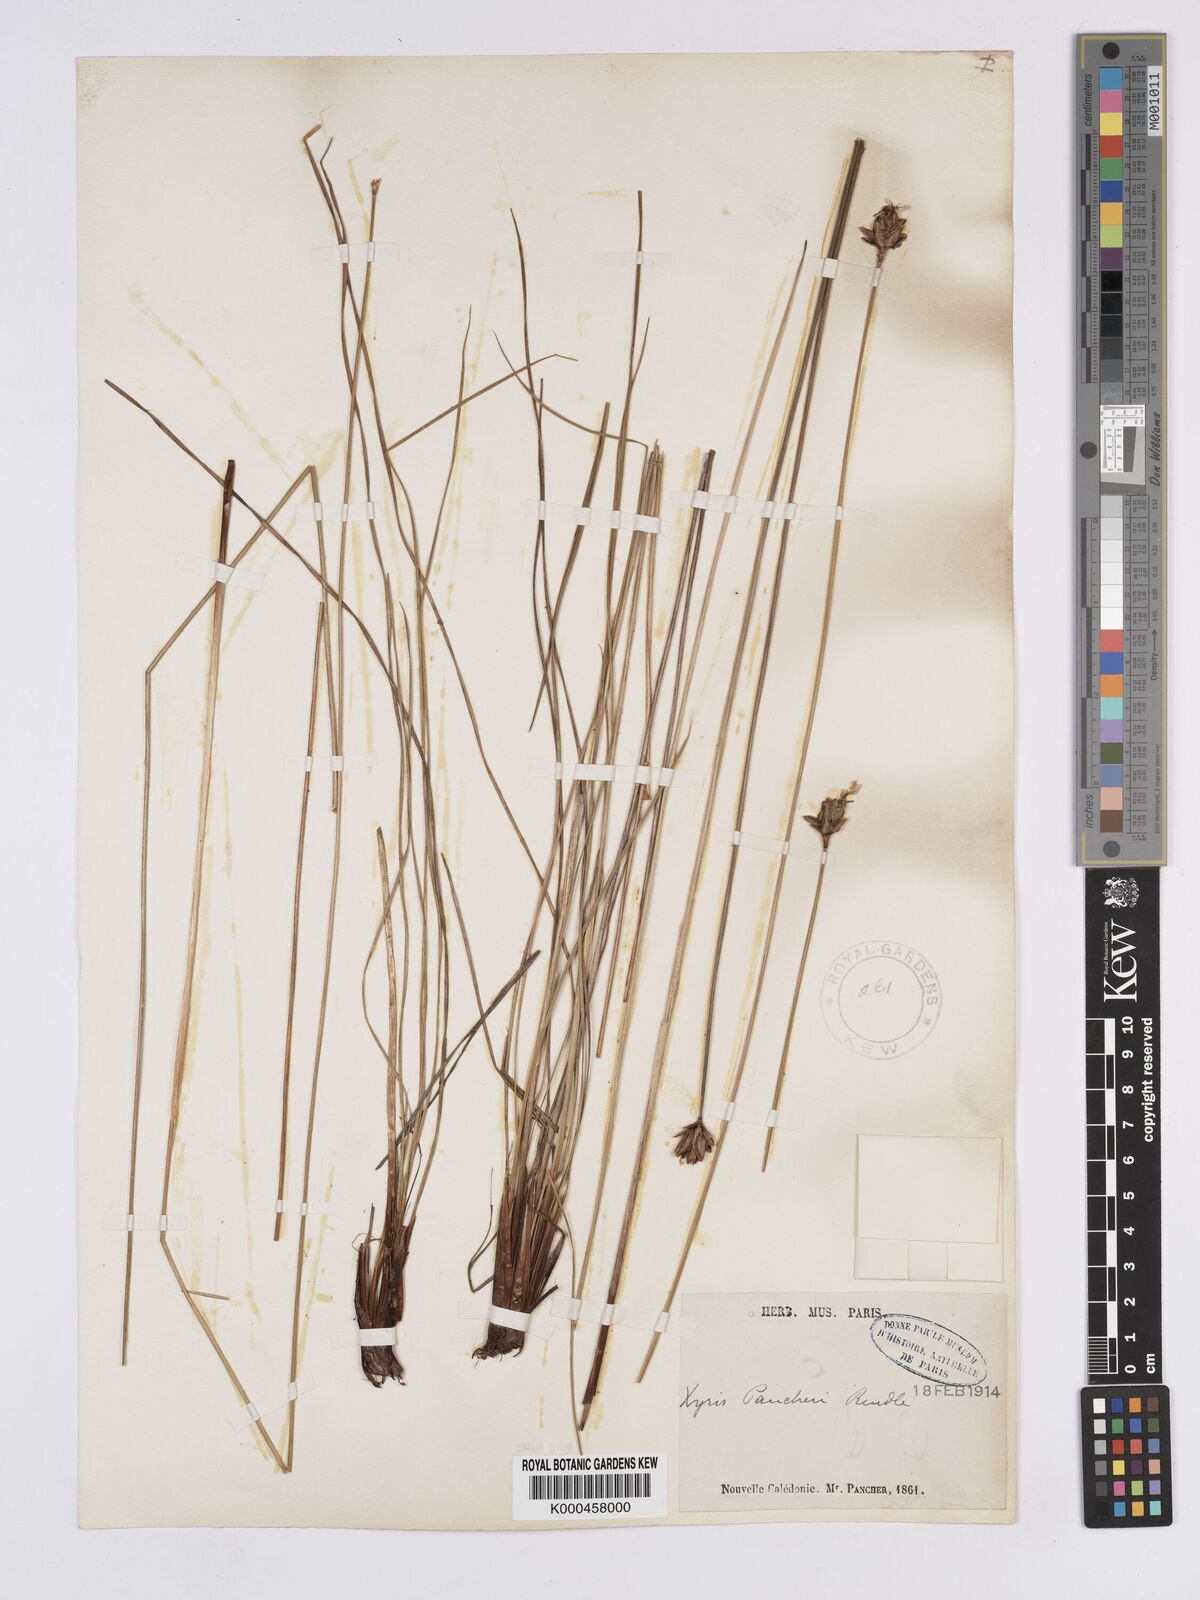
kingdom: Plantae
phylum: Tracheophyta
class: Liliopsida
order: Poales
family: Xyridaceae
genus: Xyris
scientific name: Xyris pancheri
